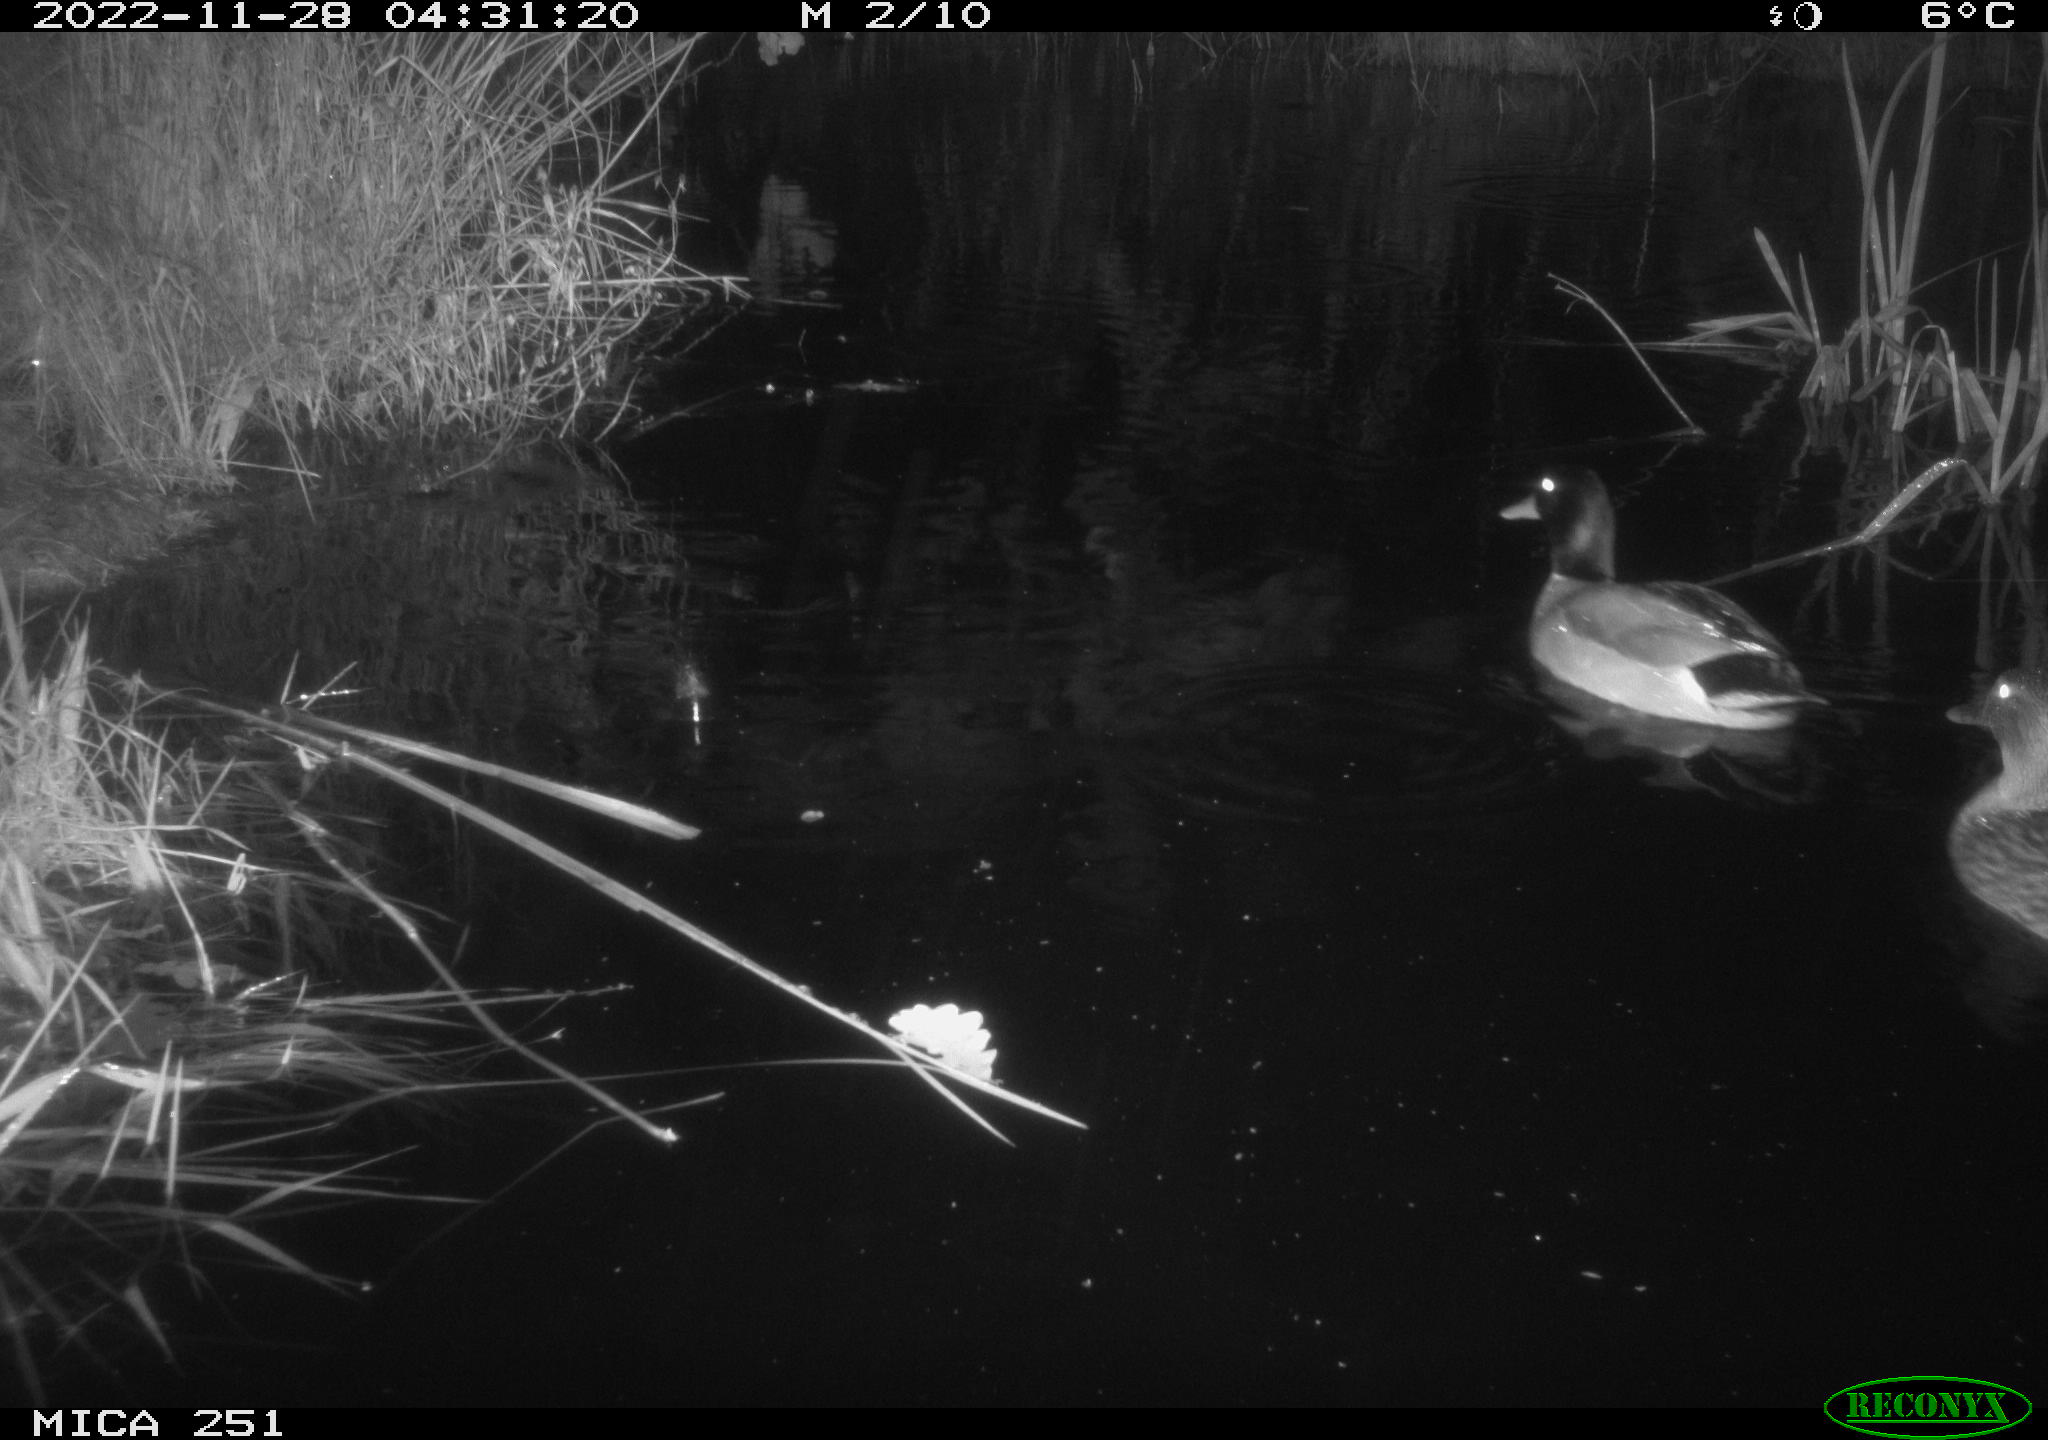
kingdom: Animalia
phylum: Chordata
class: Aves
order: Anseriformes
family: Anatidae
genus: Anas
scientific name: Anas
